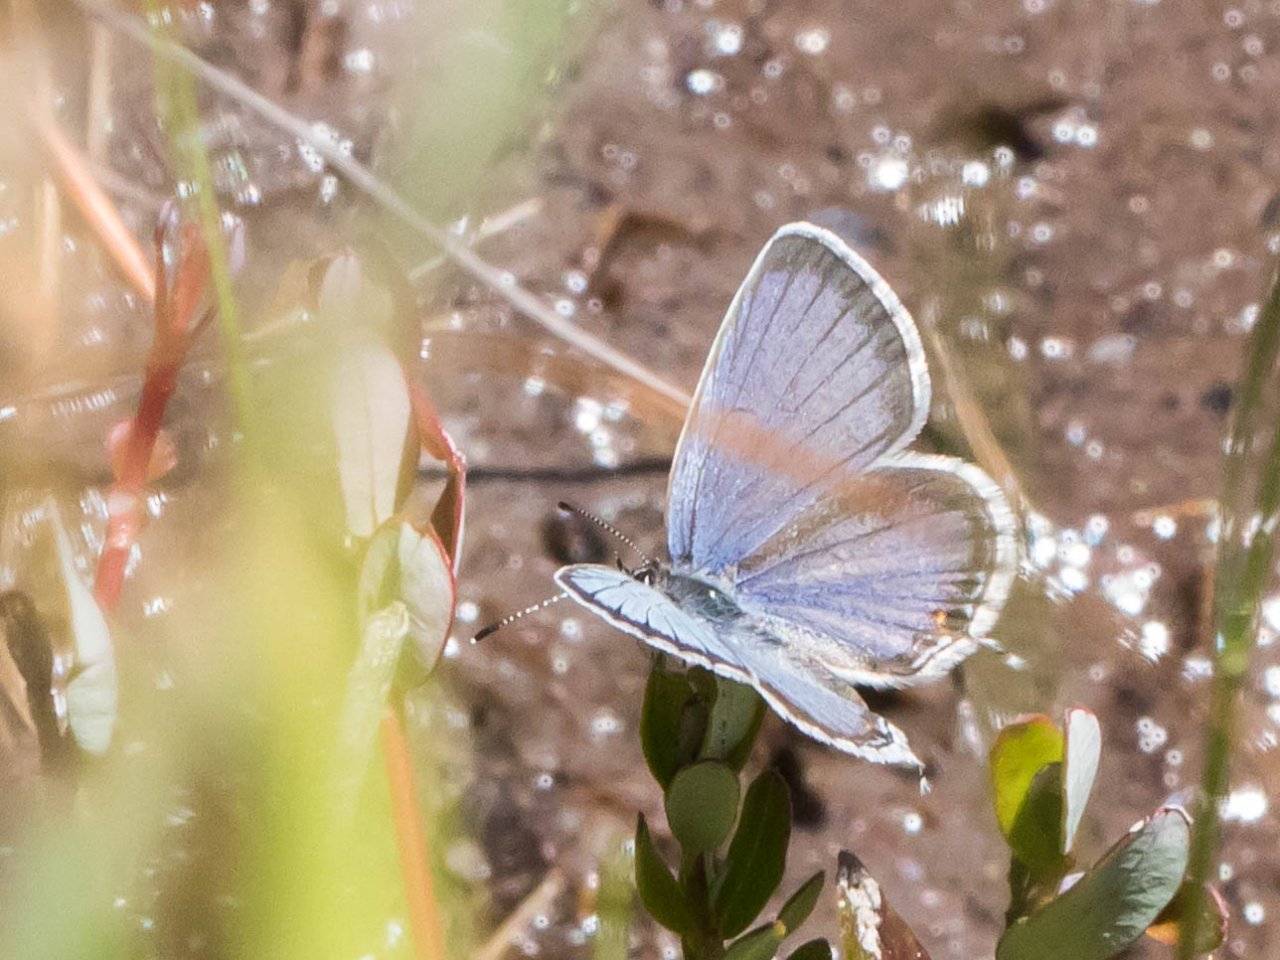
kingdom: Animalia
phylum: Arthropoda
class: Insecta
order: Lepidoptera
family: Lycaenidae
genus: Elkalyce
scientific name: Elkalyce comyntas
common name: Eastern Tailed-Blue
